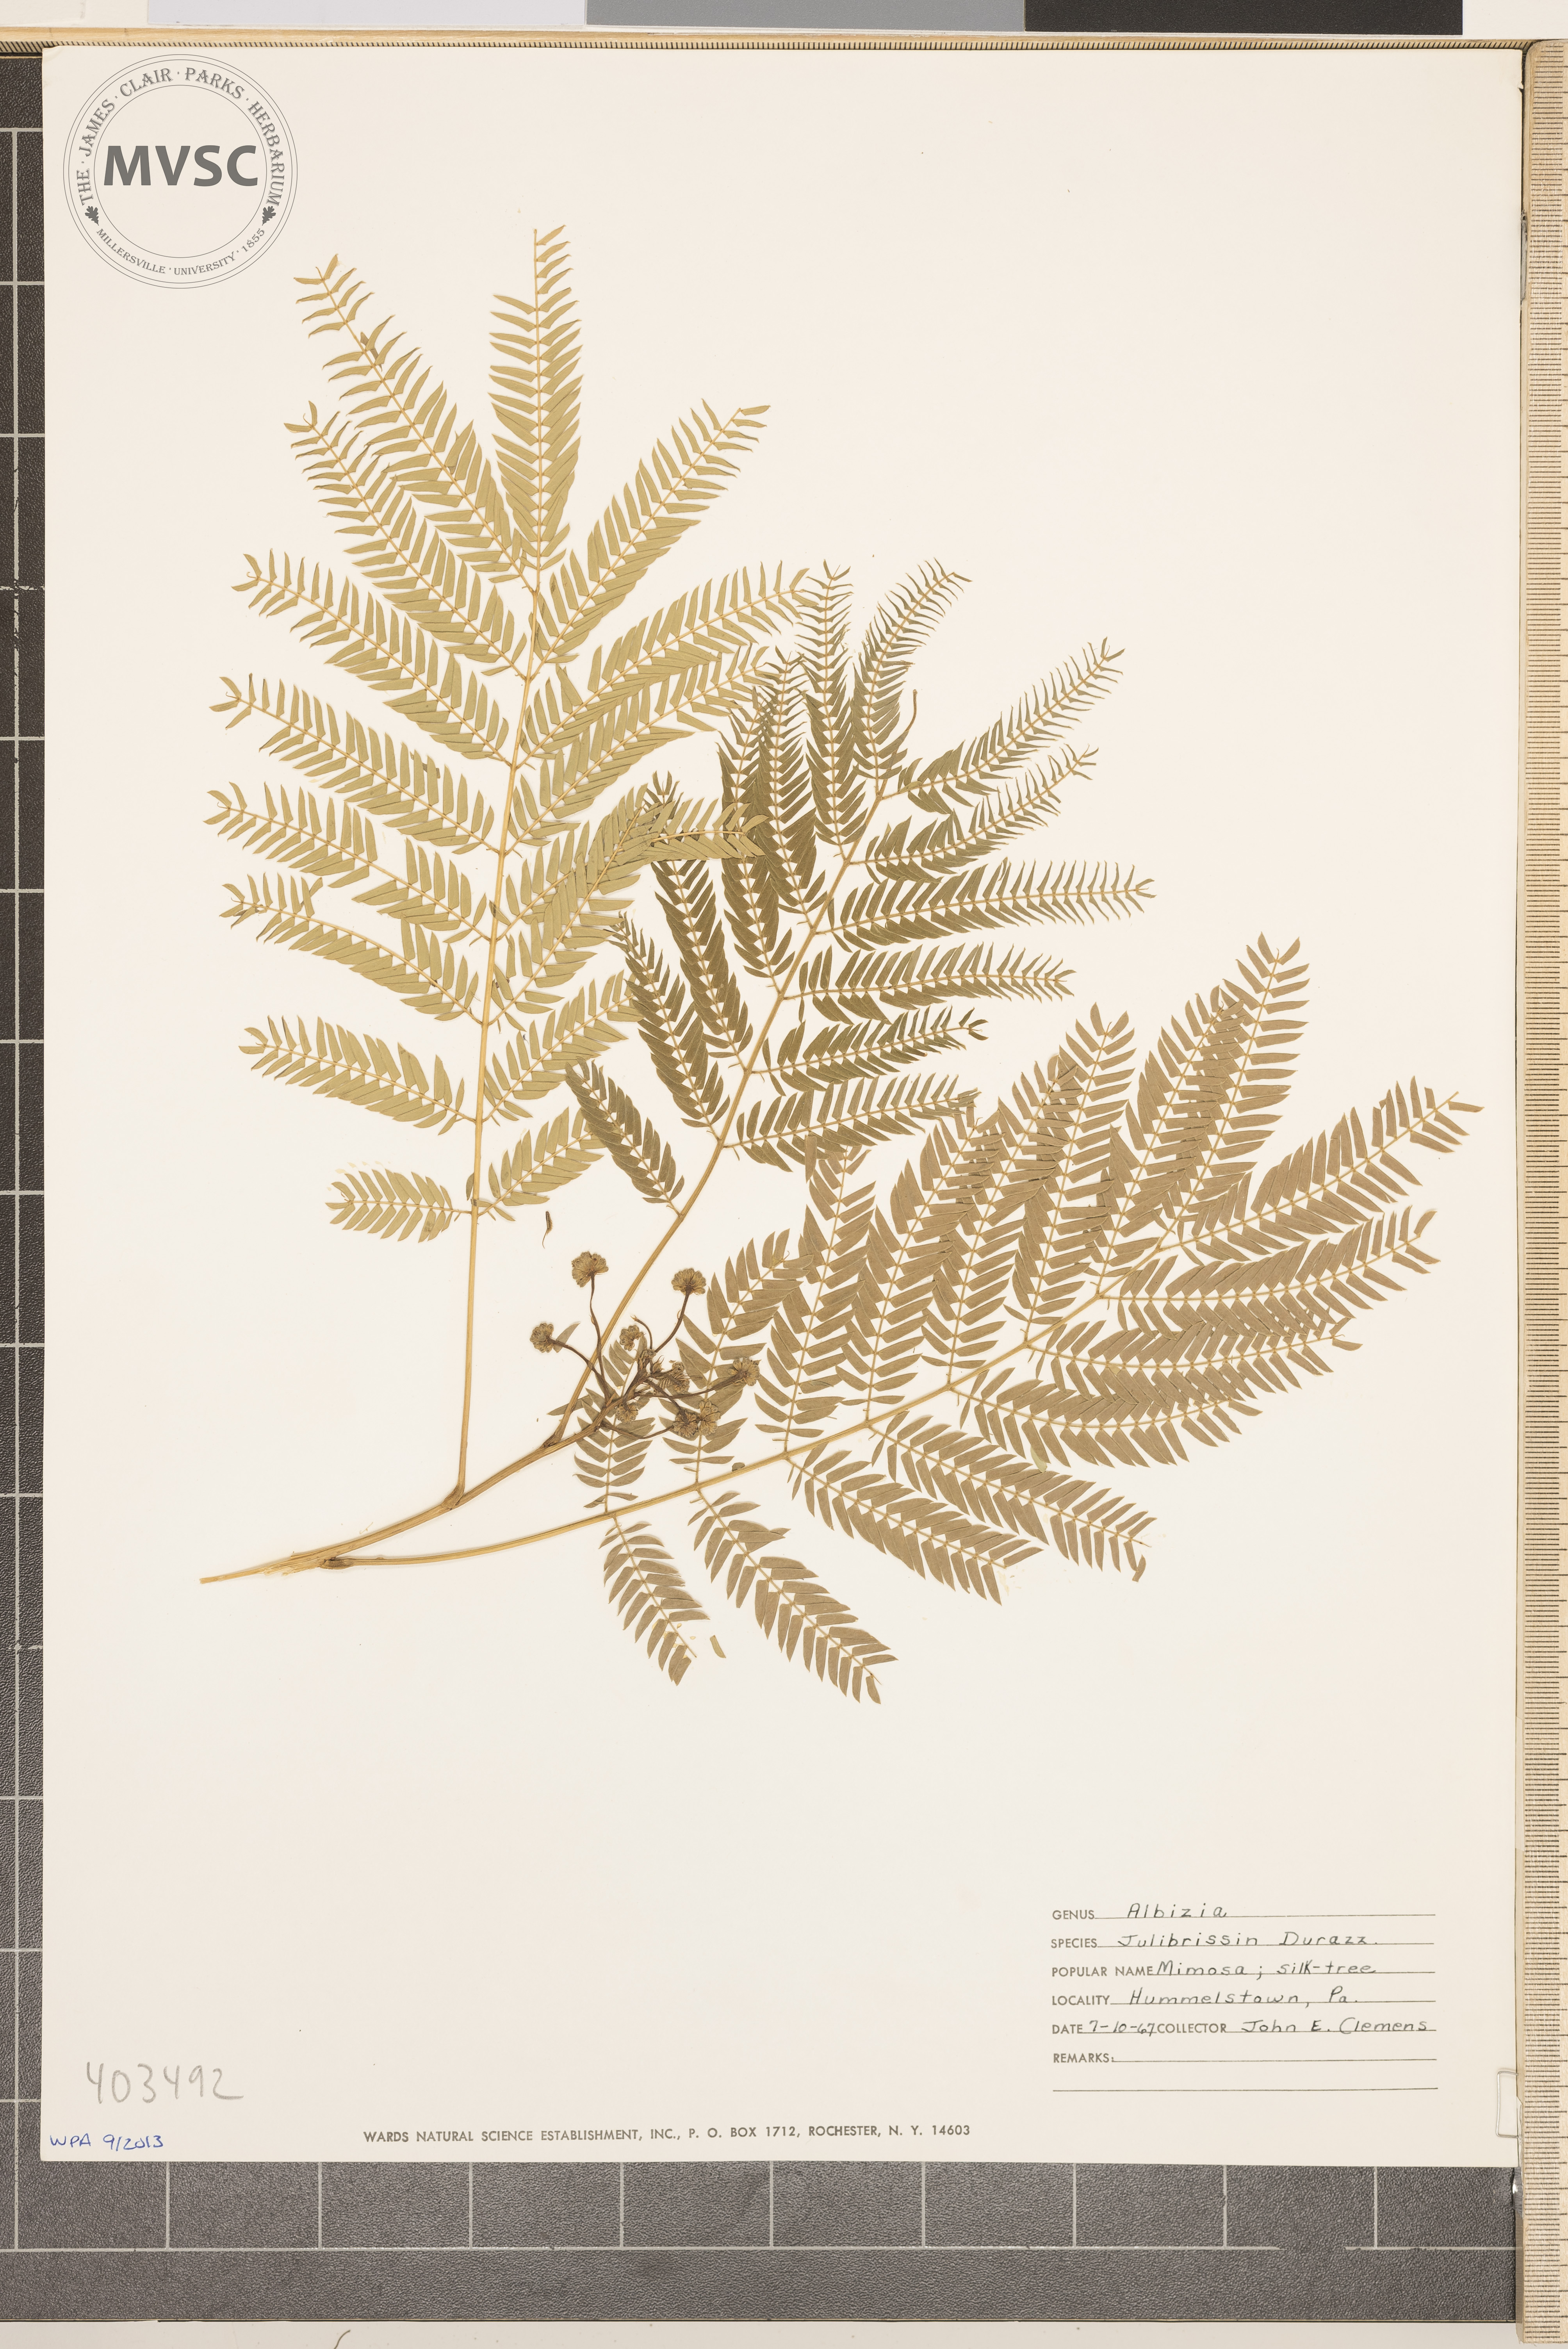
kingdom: Plantae
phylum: Tracheophyta
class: Magnoliopsida
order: Fabales
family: Fabaceae
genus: Albizia
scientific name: Albizia julibrissin
